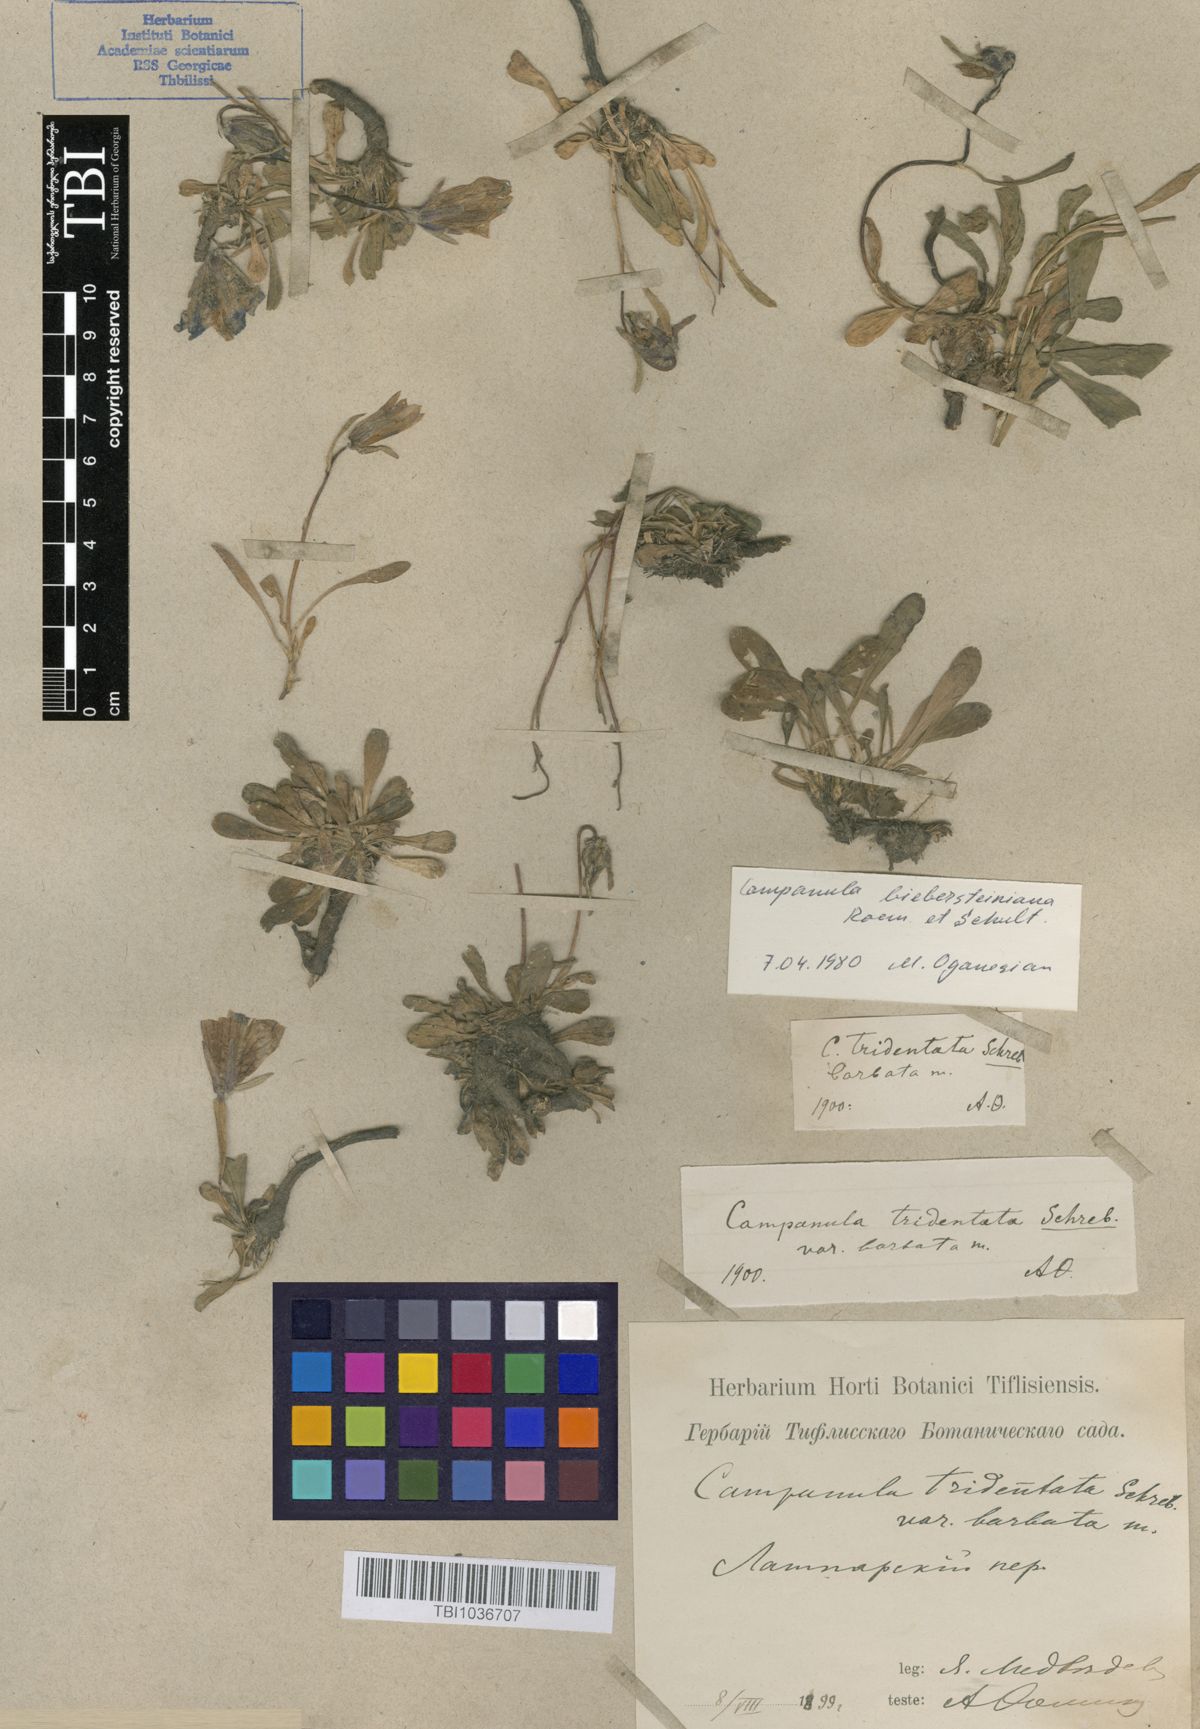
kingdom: Plantae
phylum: Tracheophyta
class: Magnoliopsida
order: Asterales
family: Campanulaceae
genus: Campanula
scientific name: Campanula tridentata
